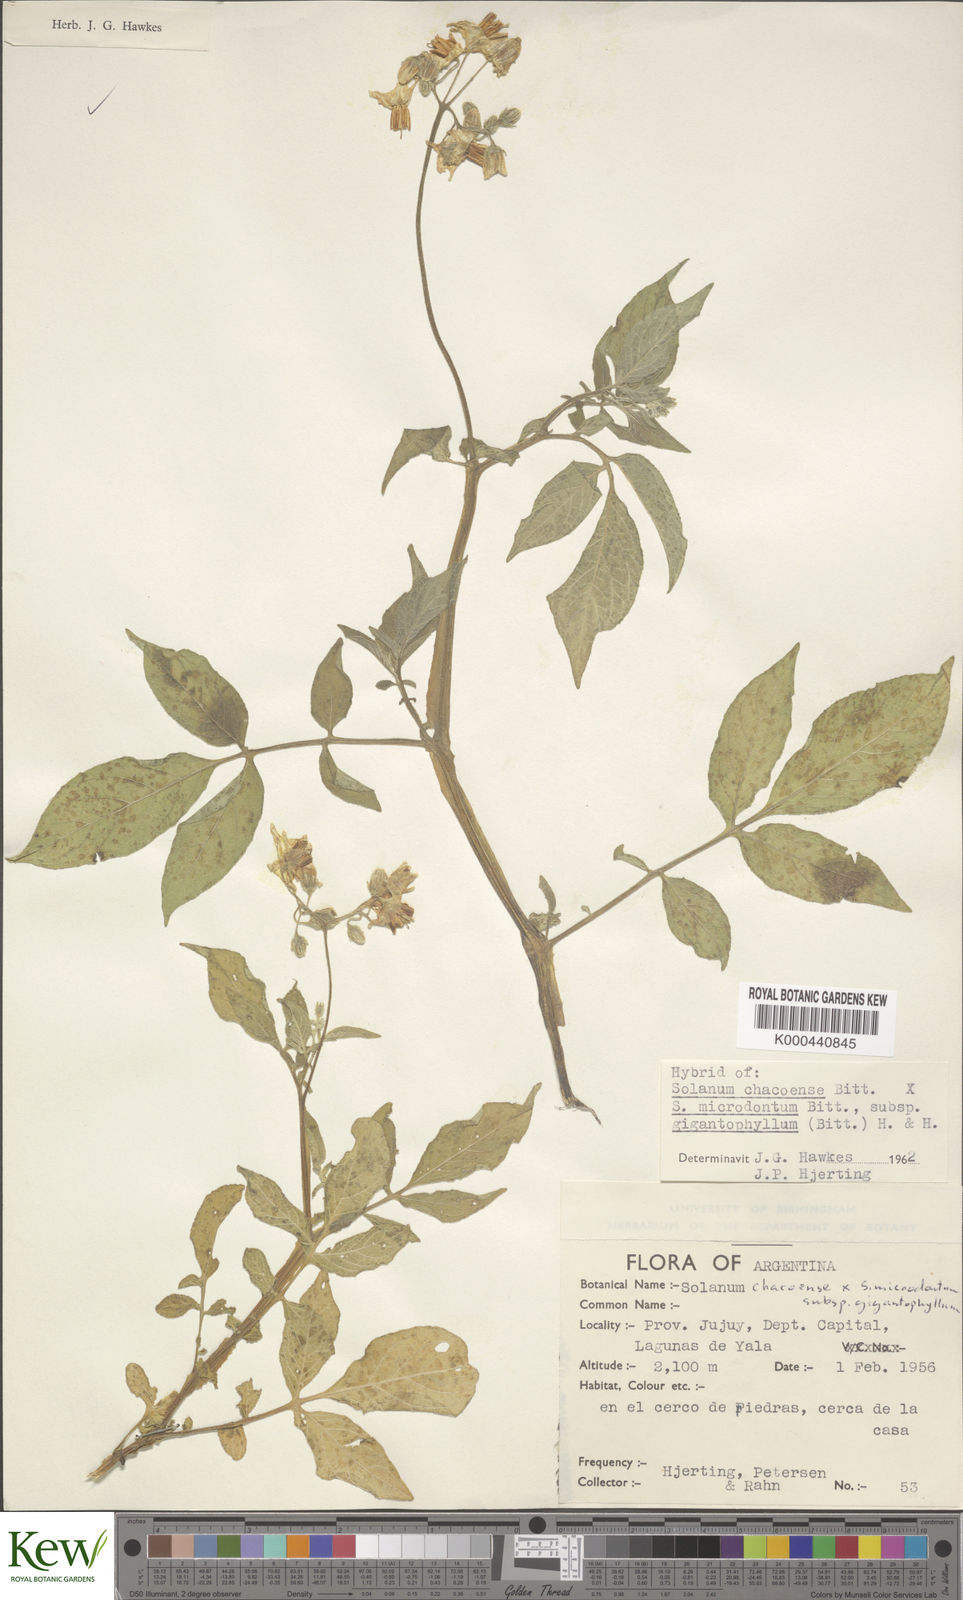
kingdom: Plantae
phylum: Tracheophyta
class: Magnoliopsida
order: Solanales
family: Solanaceae
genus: Solanum
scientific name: Solanum microdontum
